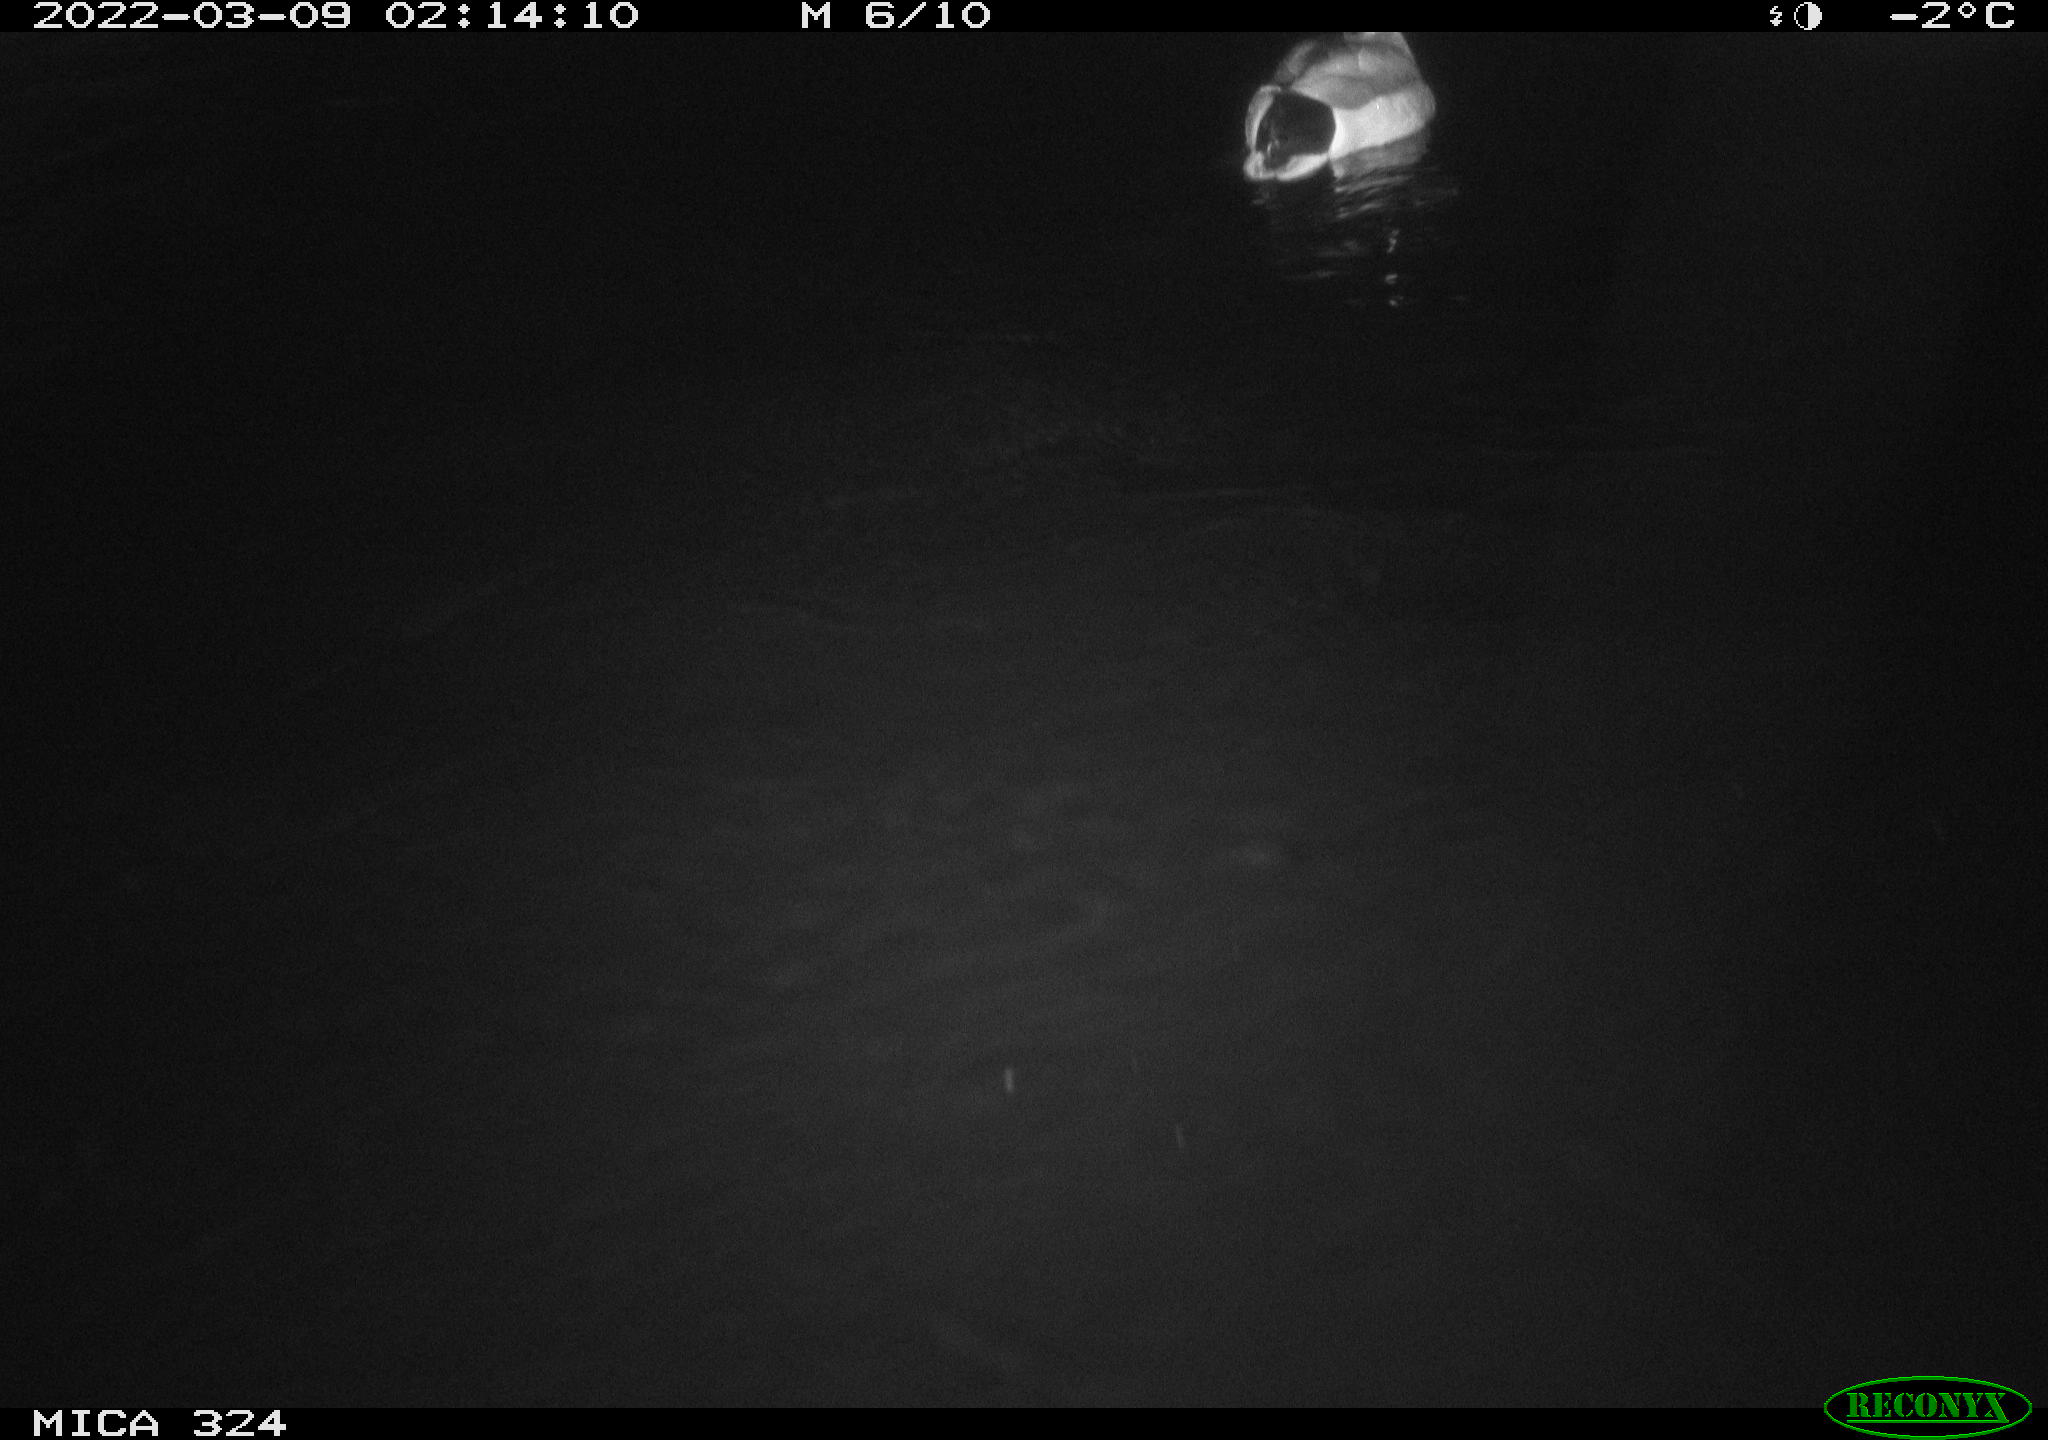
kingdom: Animalia
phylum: Chordata
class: Aves
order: Anseriformes
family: Anatidae
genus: Anas
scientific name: Anas platyrhynchos
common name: Mallard
